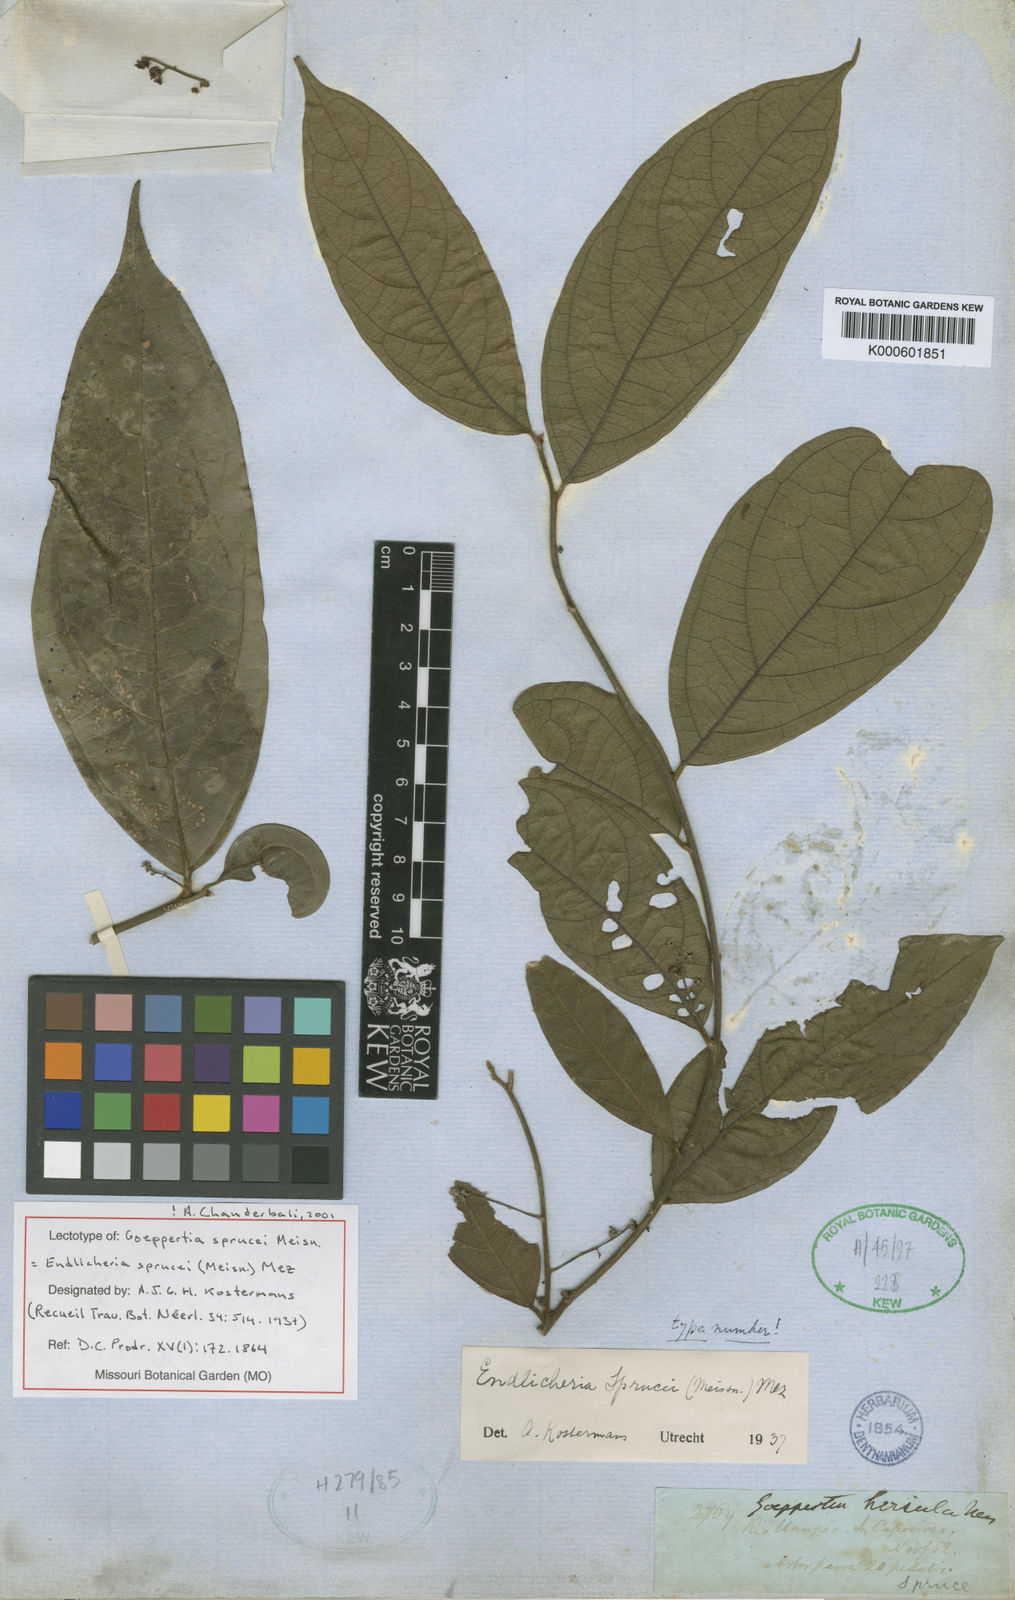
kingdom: Plantae
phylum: Tracheophyta
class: Magnoliopsida
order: Laurales
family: Lauraceae
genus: Endlicheria
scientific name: Endlicheria sprucei
